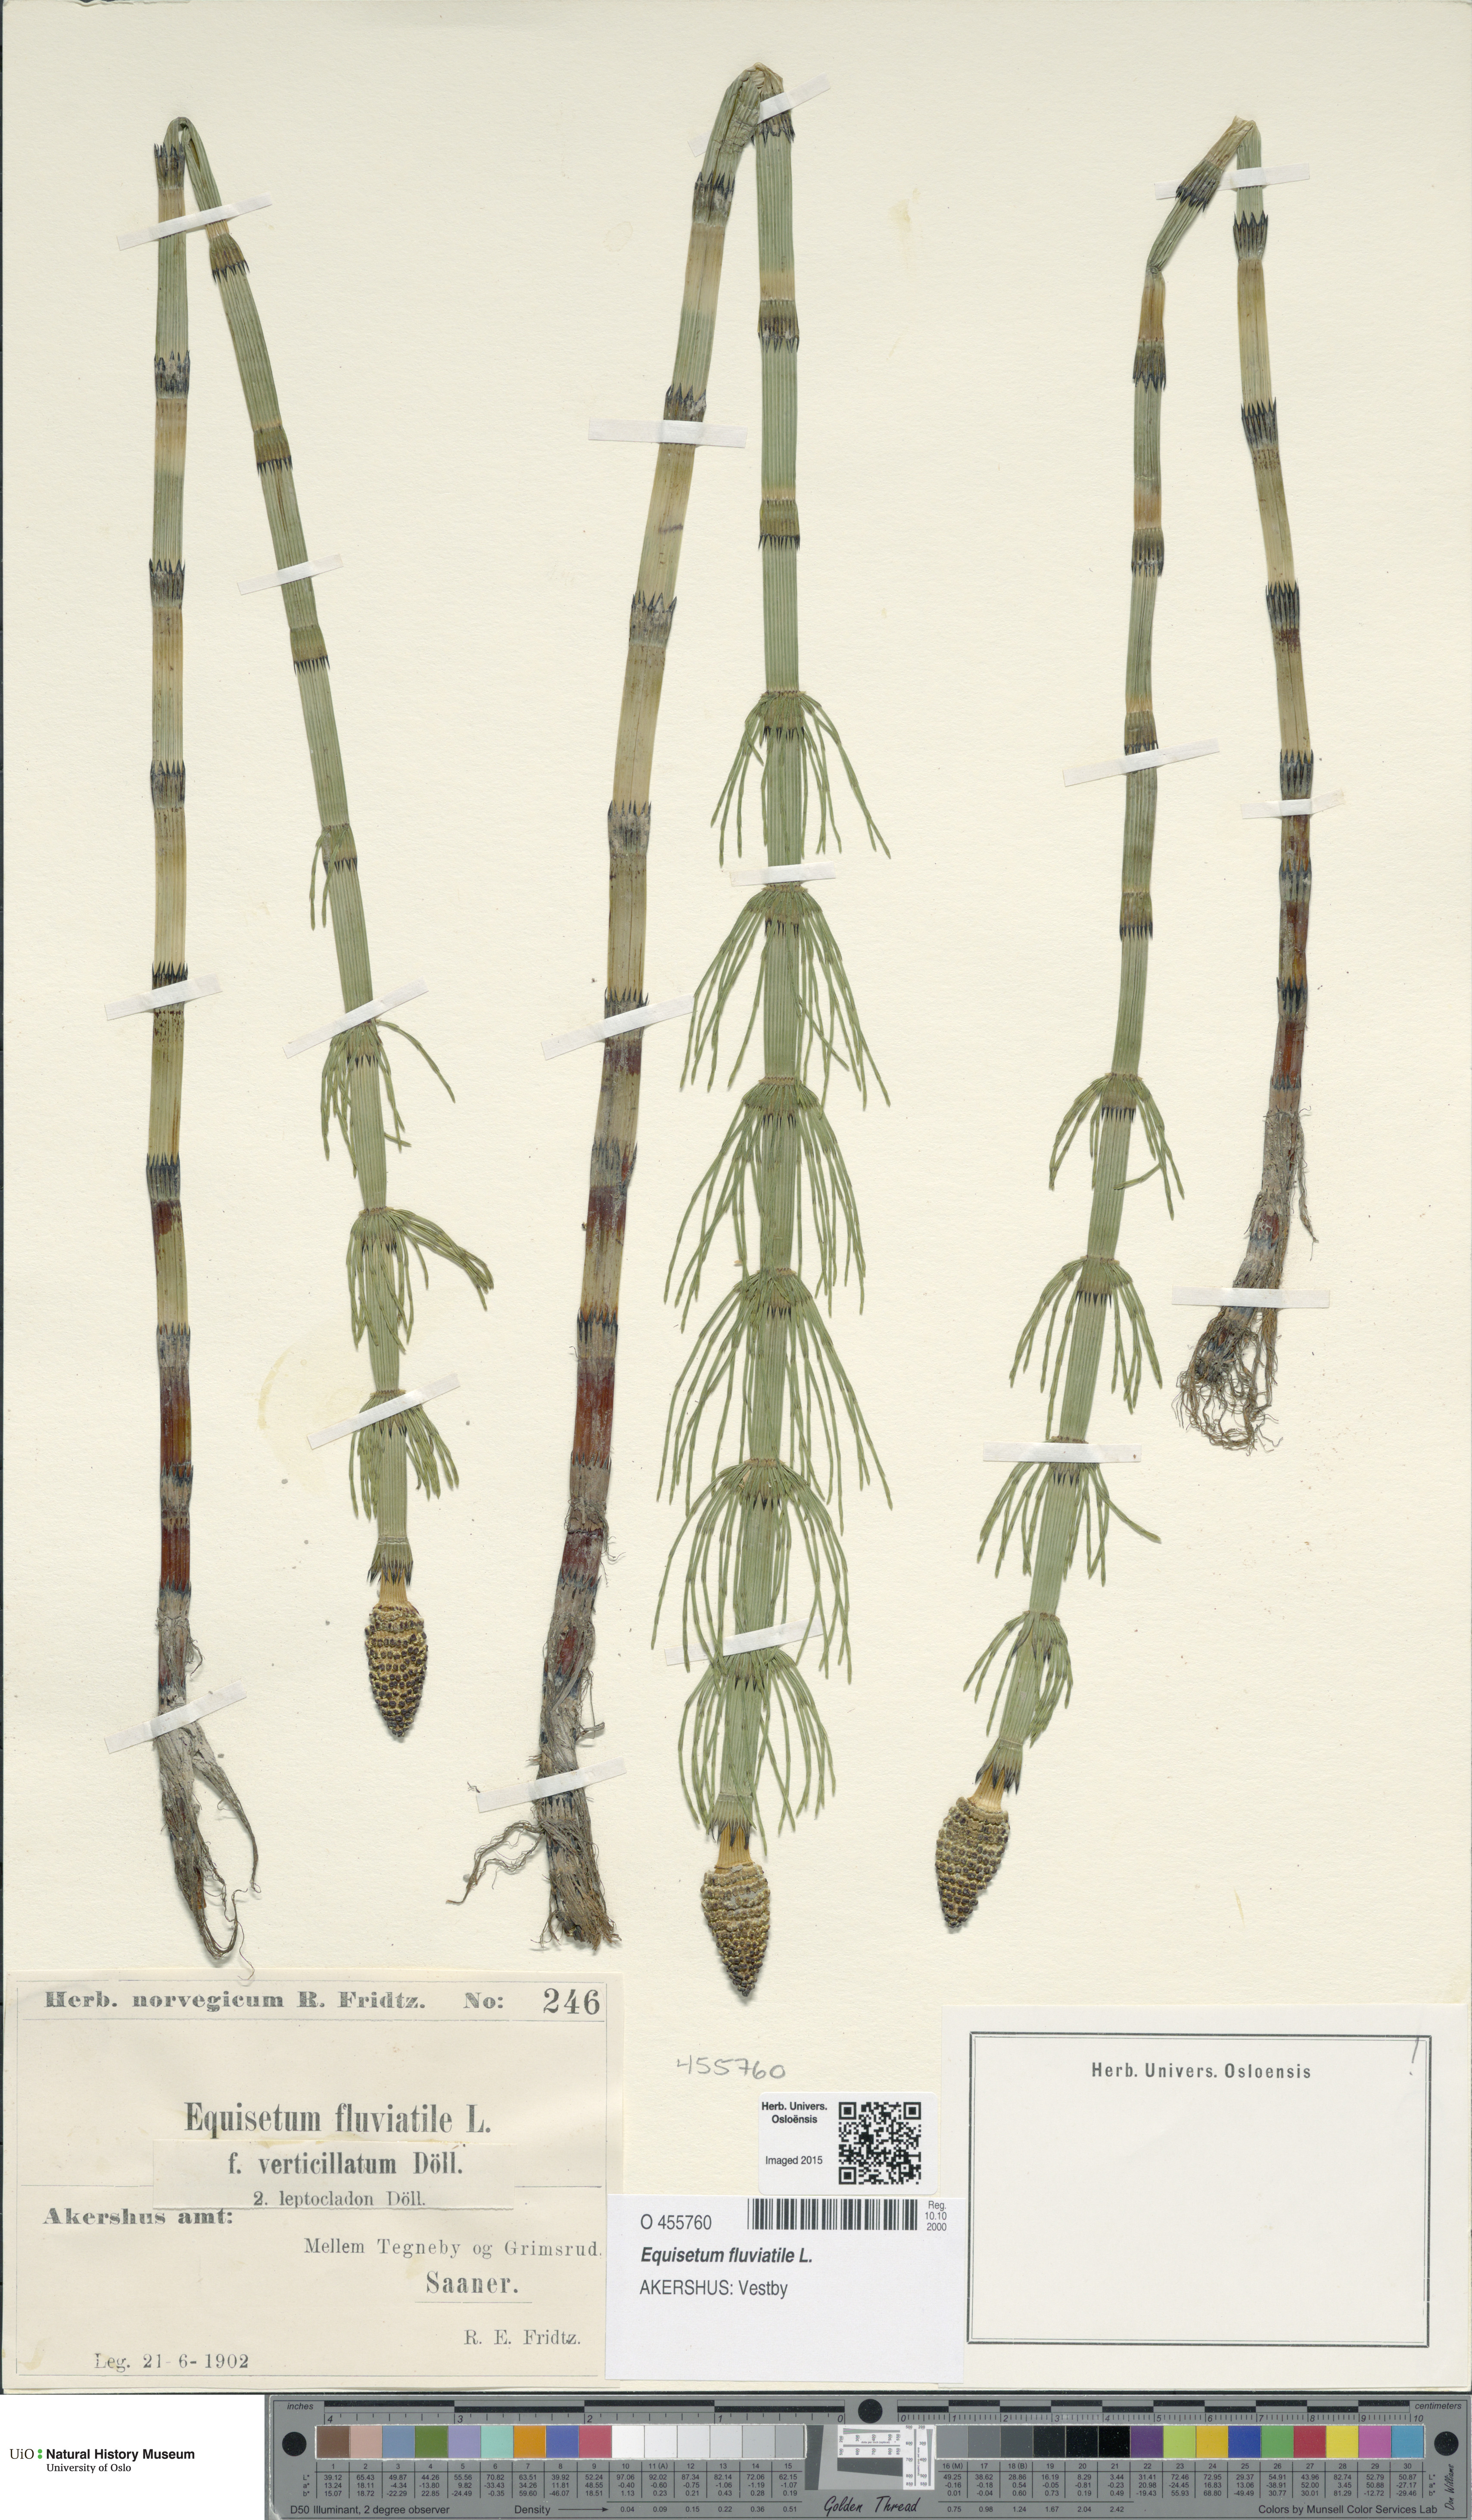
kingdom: Plantae
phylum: Tracheophyta
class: Polypodiopsida
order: Equisetales
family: Equisetaceae
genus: Equisetum
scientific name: Equisetum fluviatile
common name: Water horsetail
